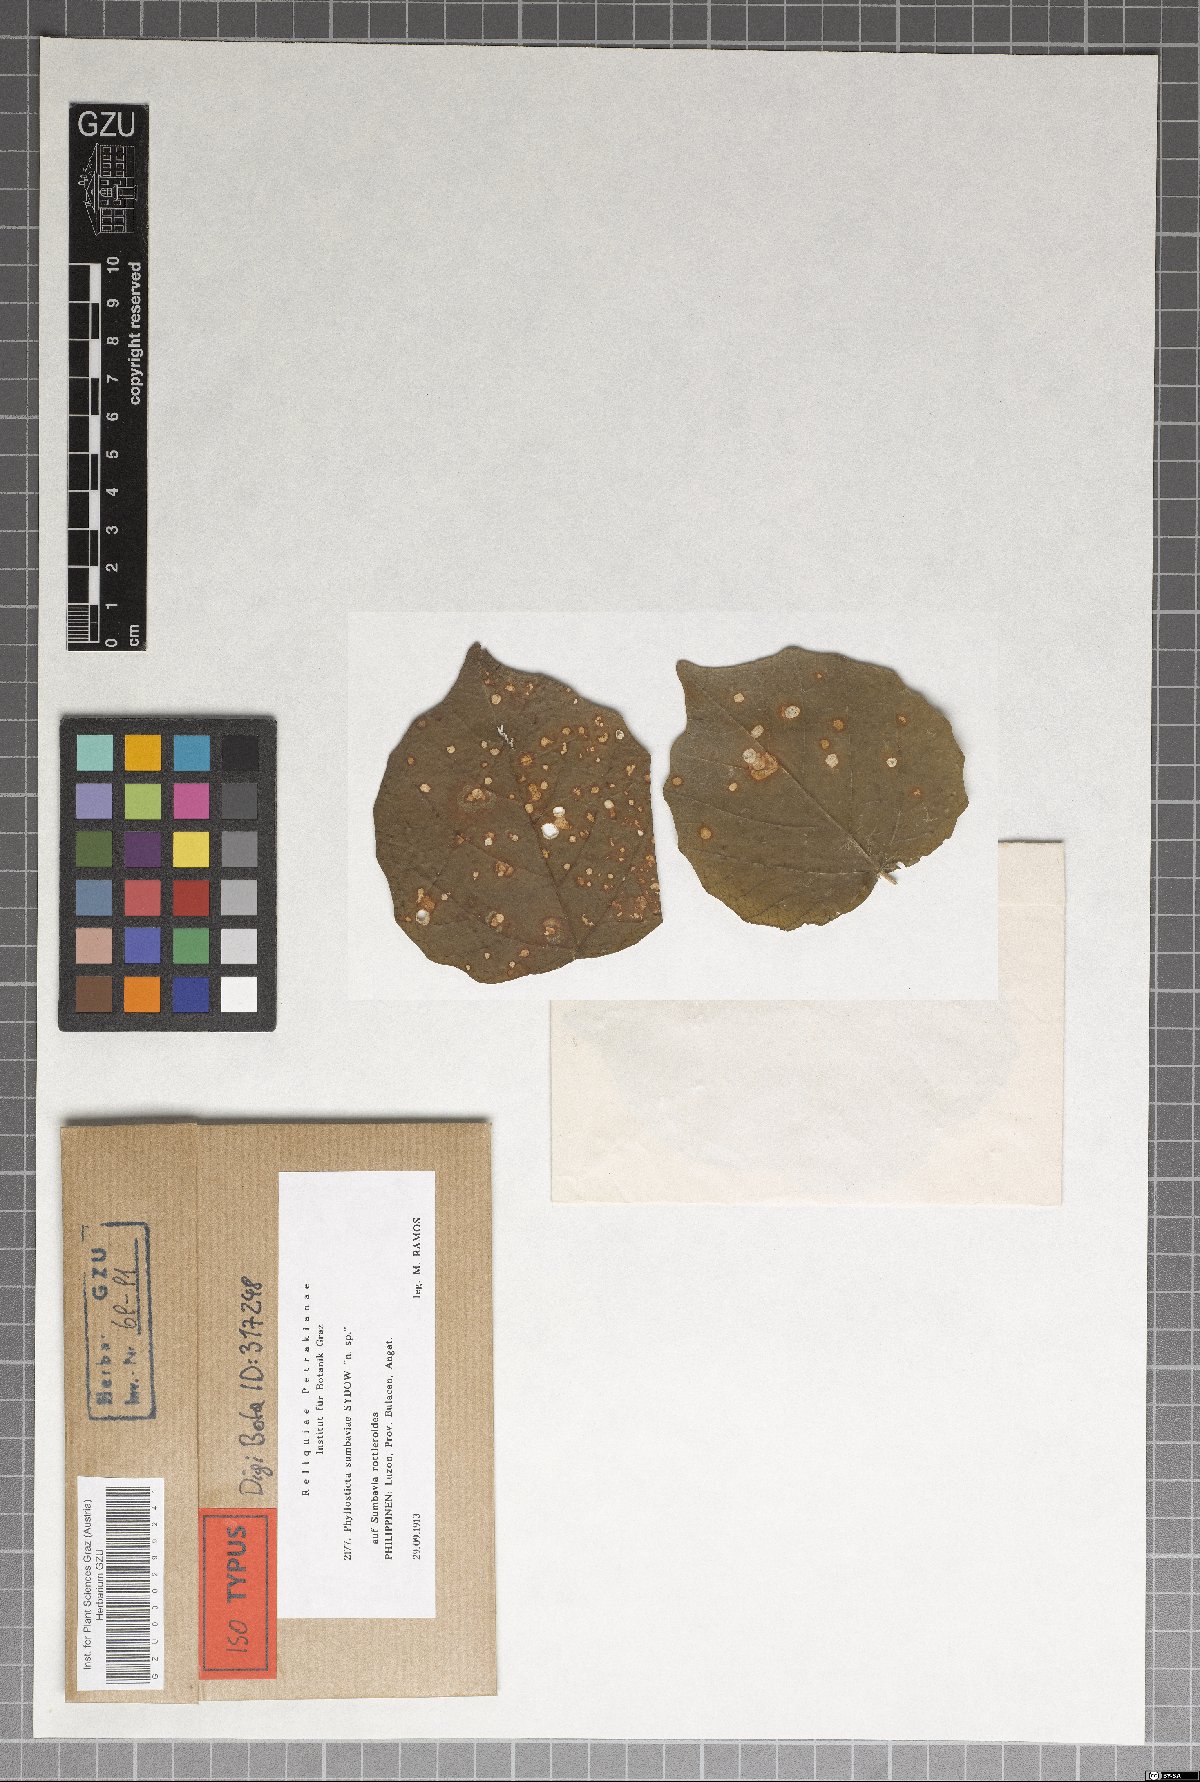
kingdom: Fungi
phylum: Ascomycota
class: Dothideomycetes
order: Botryosphaeriales
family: Phyllostictaceae
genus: Phyllosticta
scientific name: Phyllosticta sumbaviae
